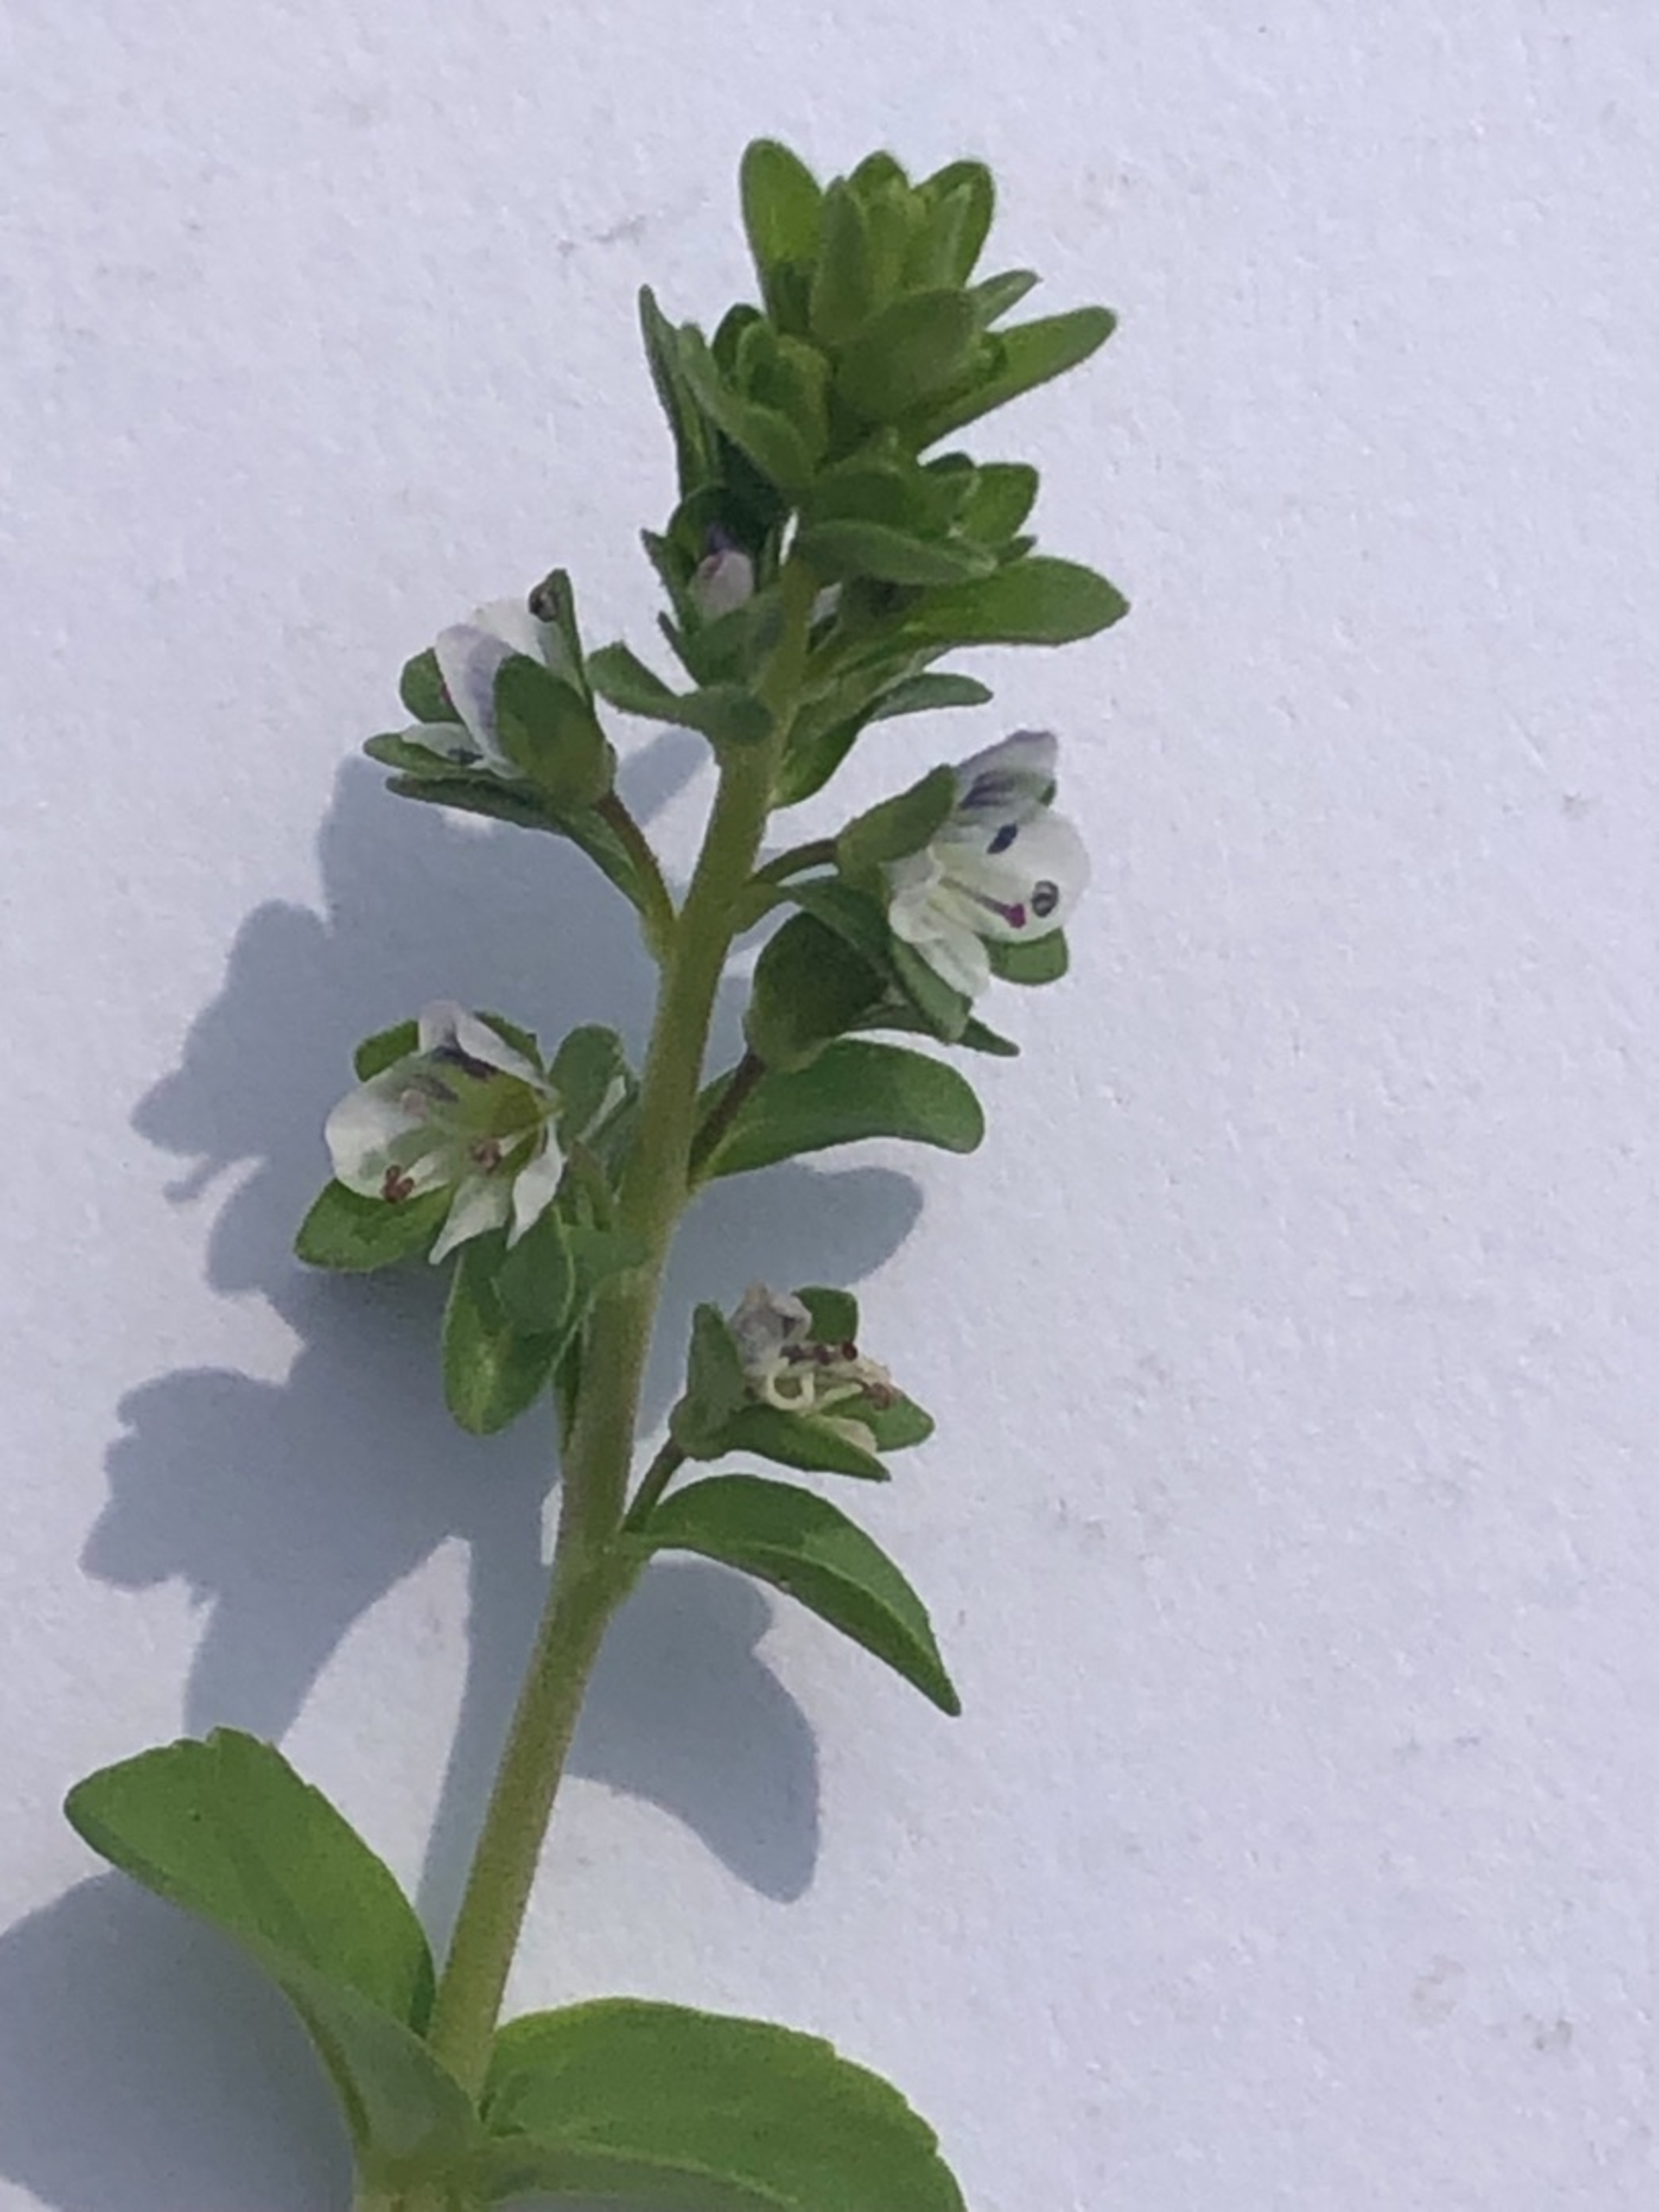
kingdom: Plantae
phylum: Tracheophyta
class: Magnoliopsida
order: Lamiales
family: Plantaginaceae
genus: Veronica
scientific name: Veronica serpyllifolia
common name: Glat ærenpris
